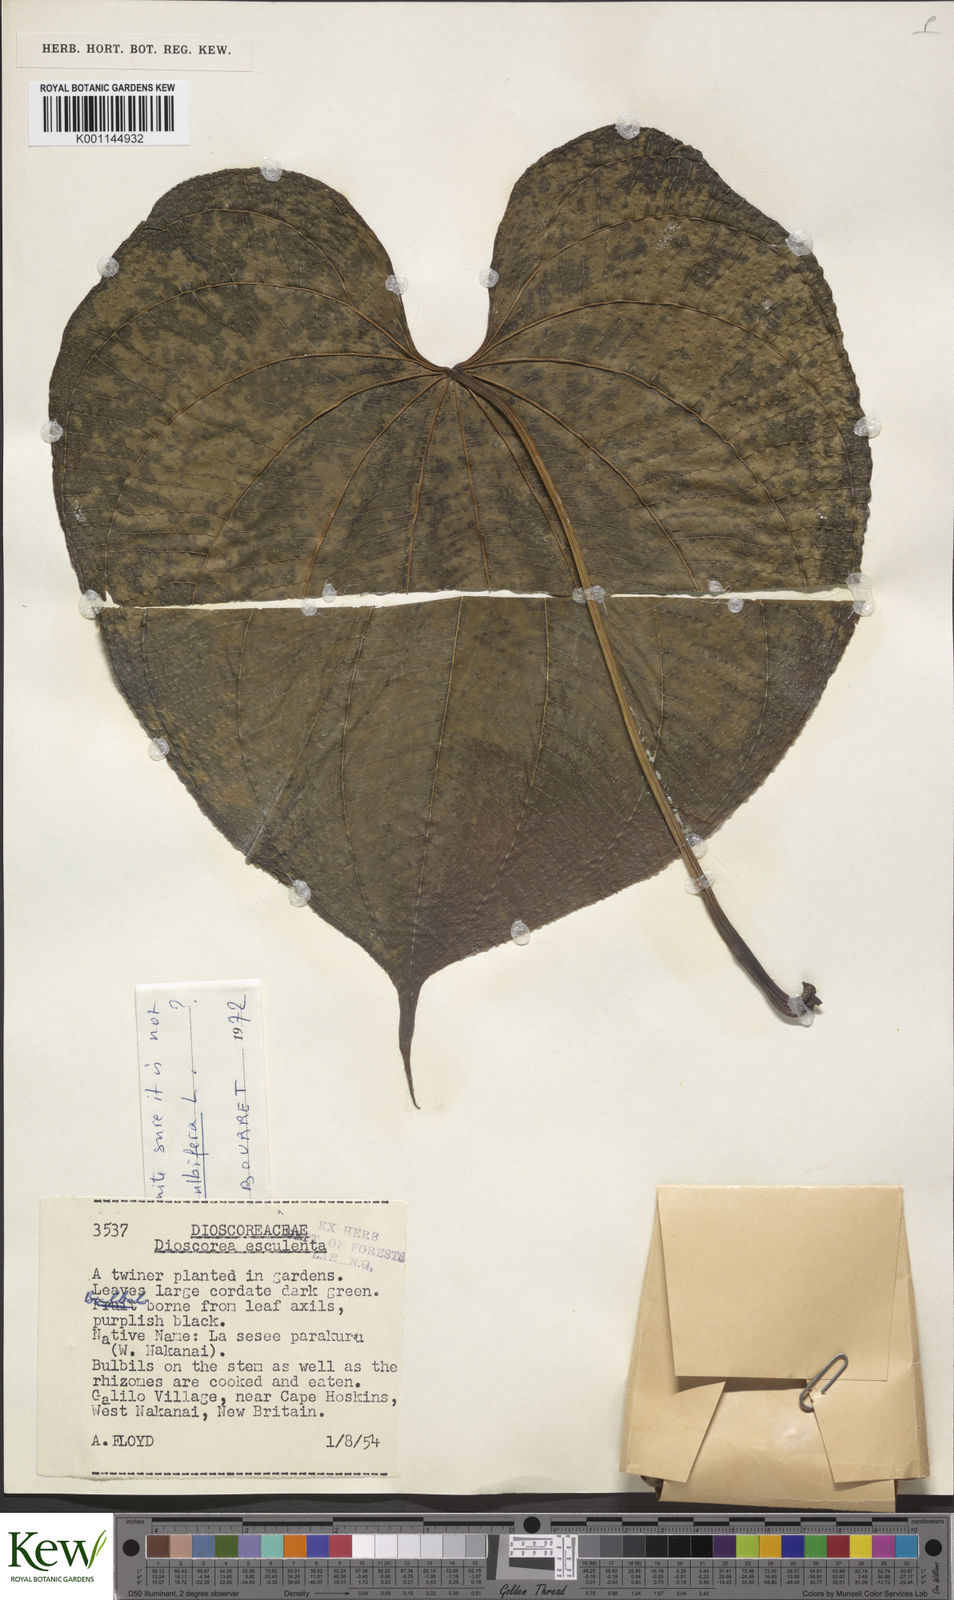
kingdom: Plantae
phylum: Tracheophyta
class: Liliopsida
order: Dioscoreales
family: Dioscoreaceae
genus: Dioscorea
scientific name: Dioscorea esculenta
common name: Chinese yam
